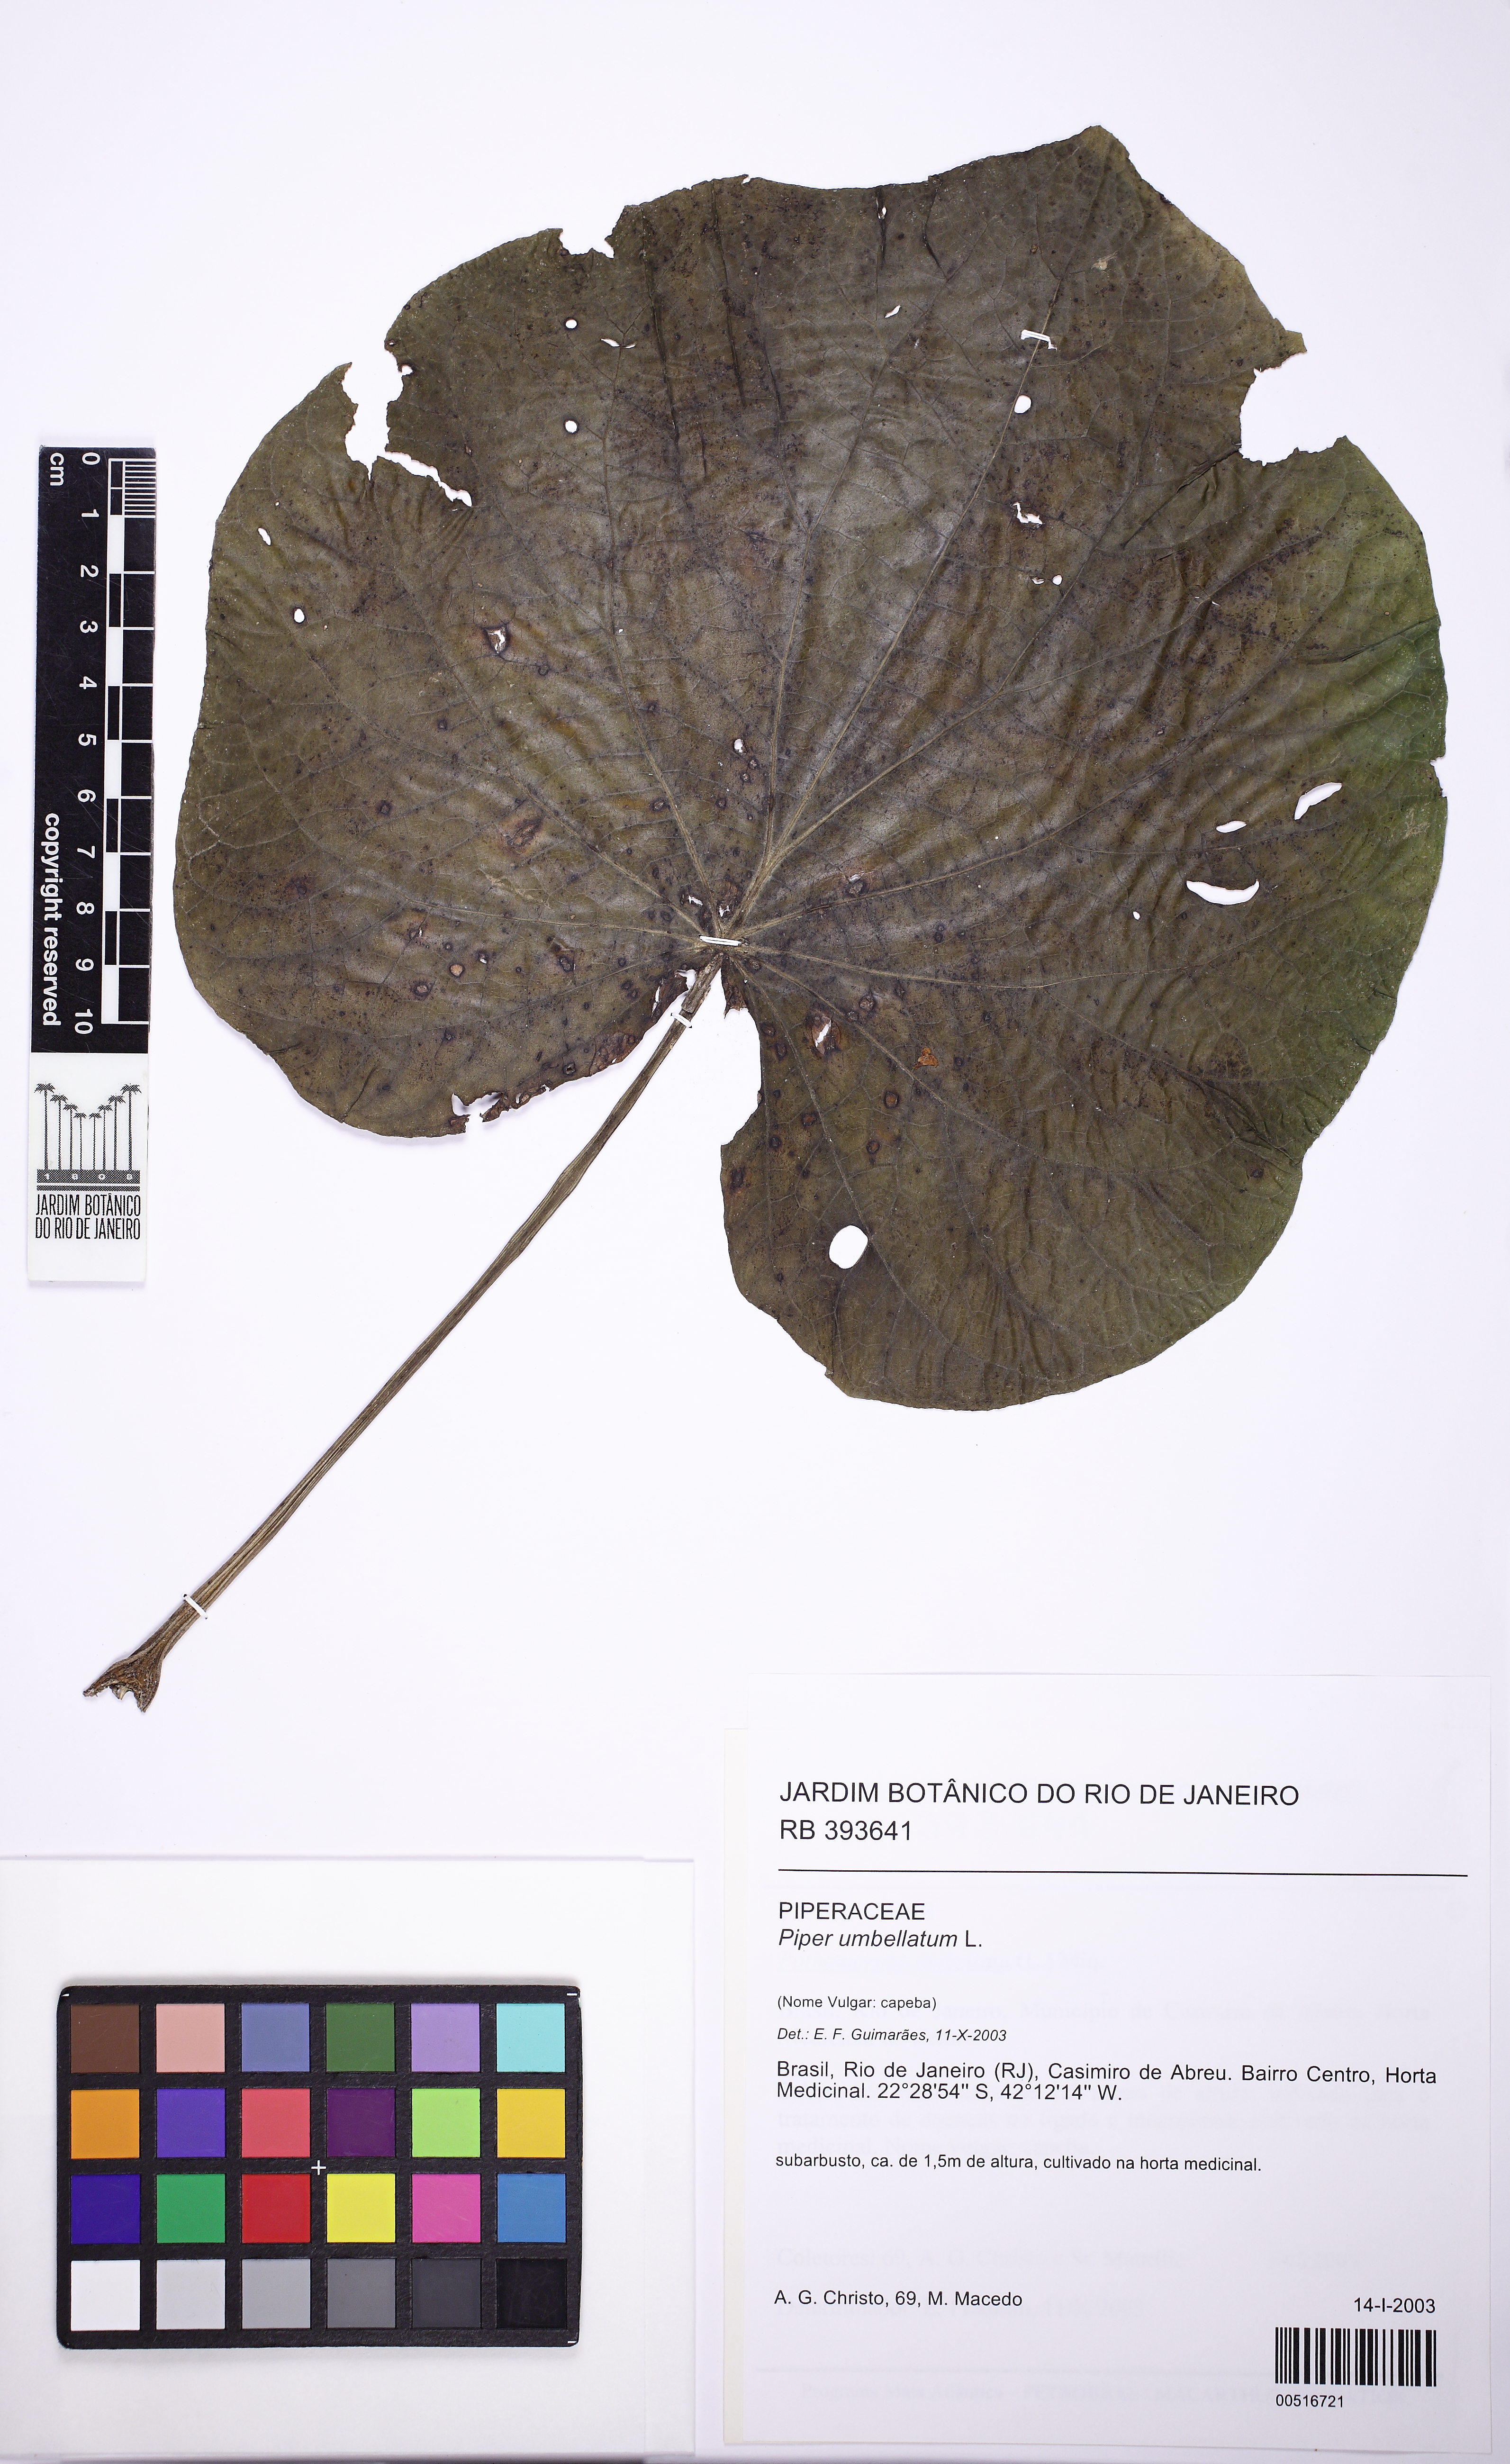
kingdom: Plantae
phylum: Tracheophyta
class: Magnoliopsida
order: Piperales
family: Piperaceae
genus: Piper
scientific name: Piper umbellatum
